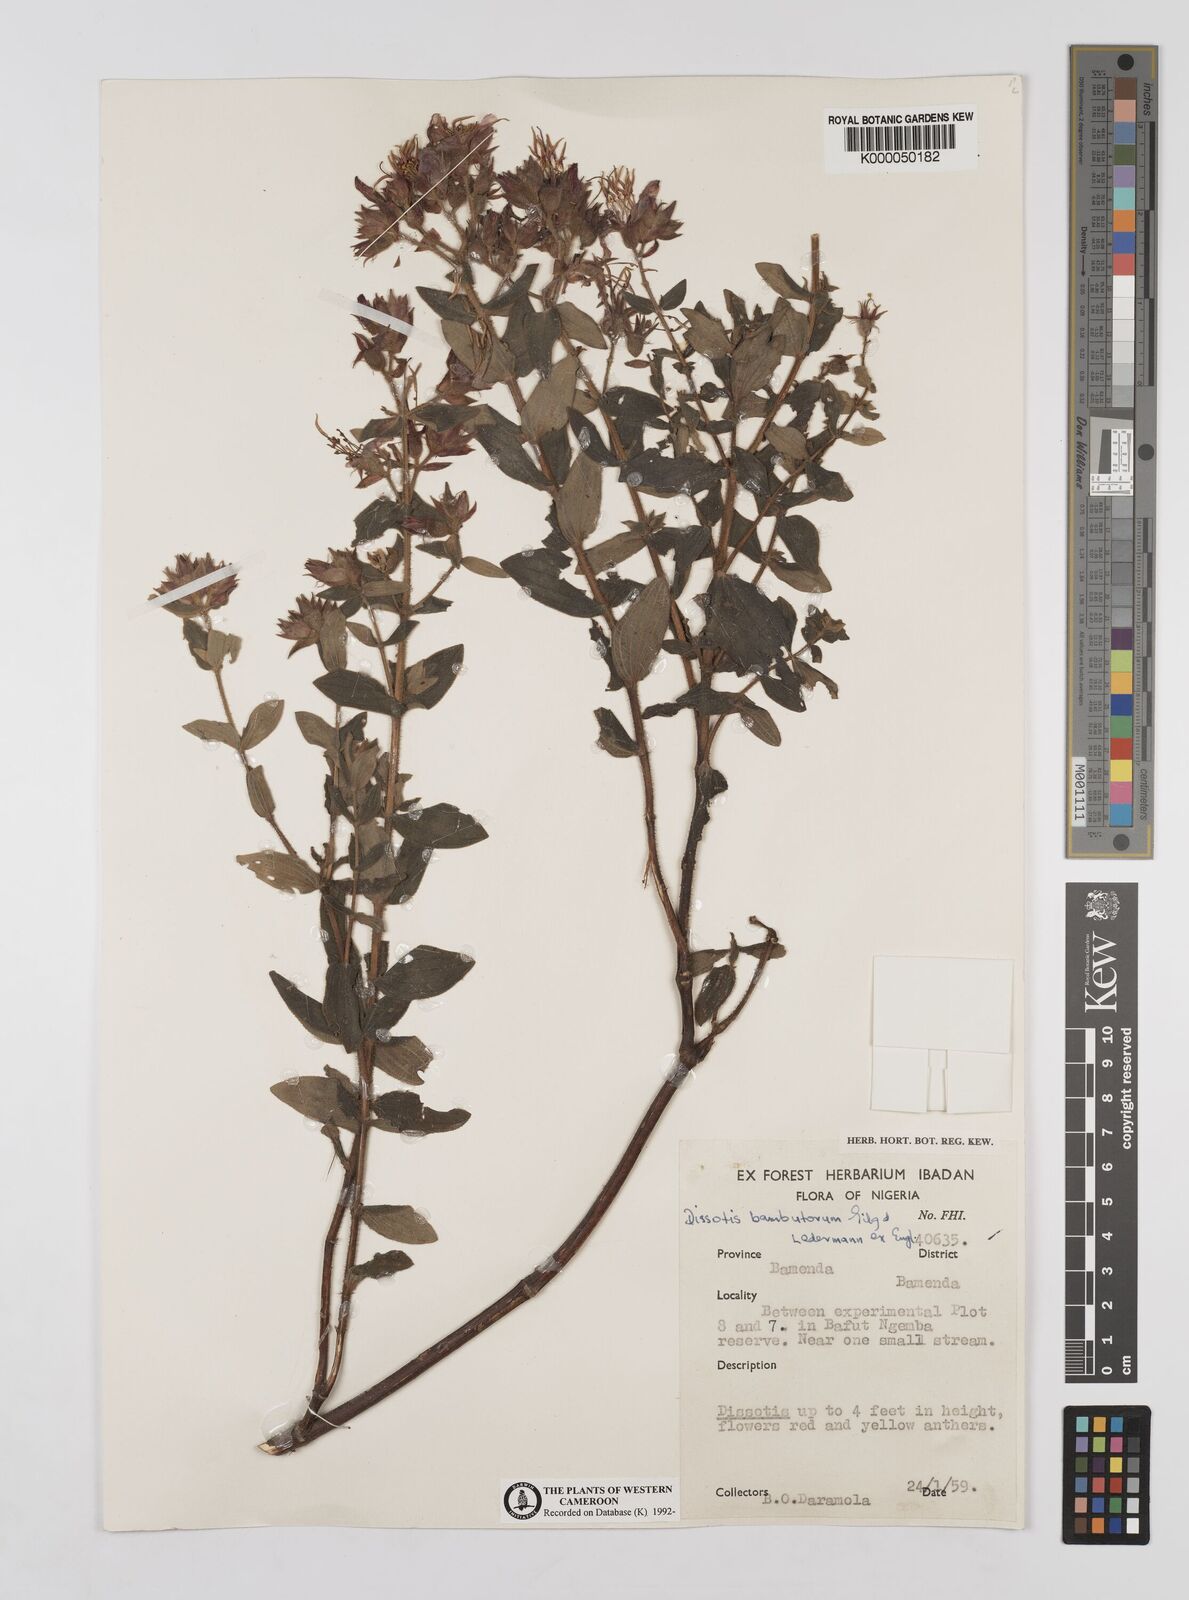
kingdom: Plantae
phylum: Tracheophyta
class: Magnoliopsida
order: Myrtales
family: Melastomataceae
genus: Argyrella
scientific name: Argyrella bambutorum
